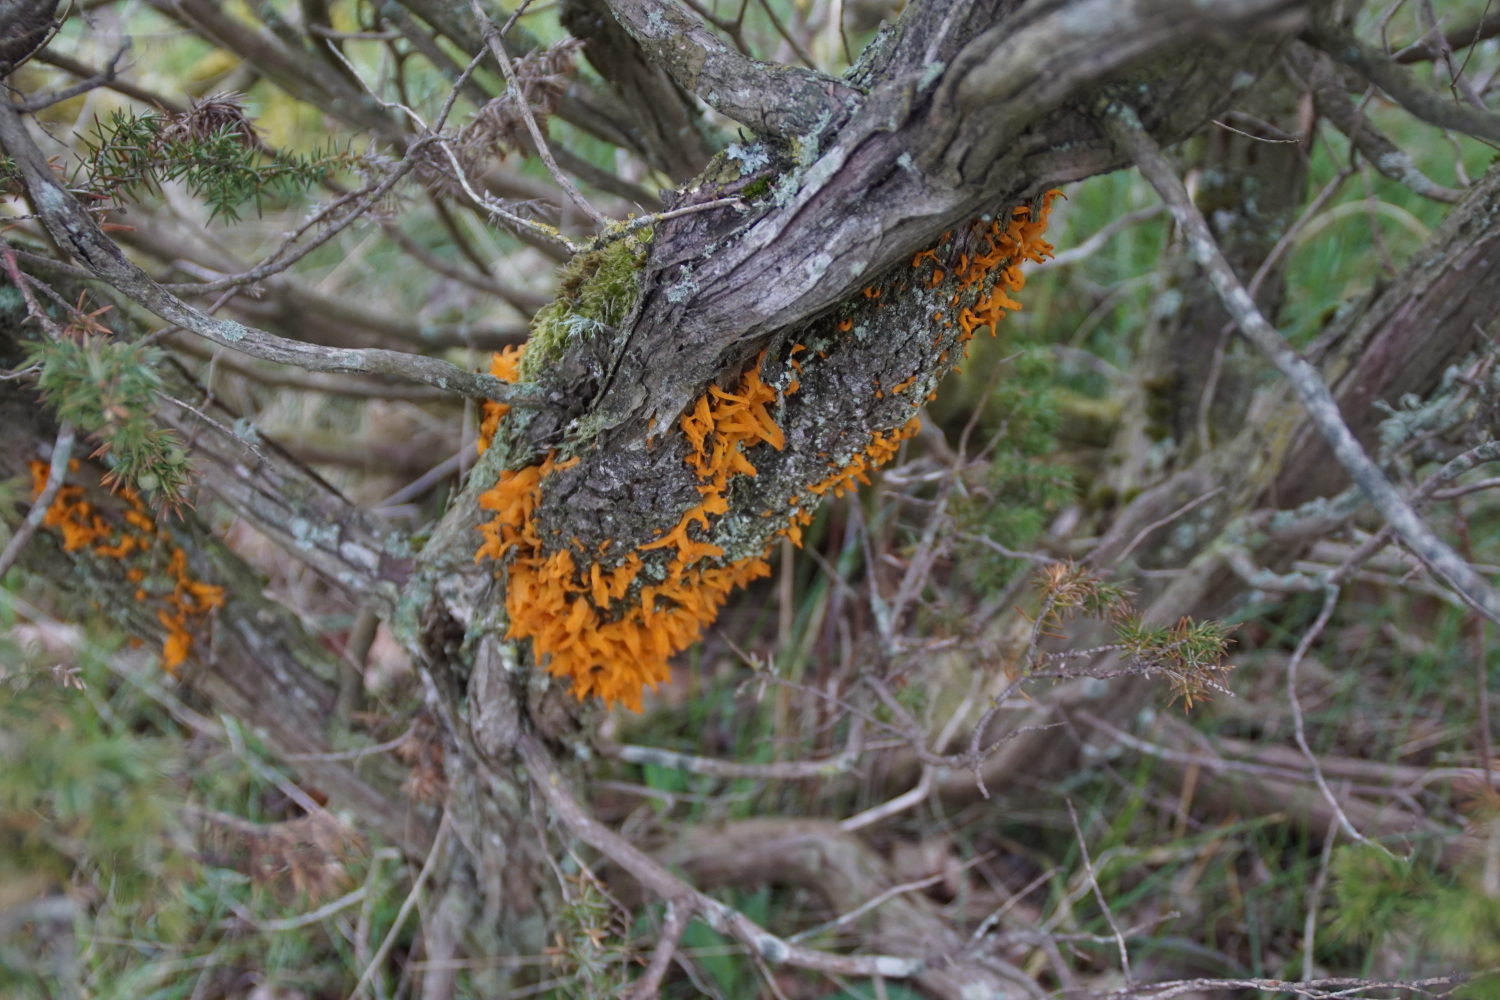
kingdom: Fungi
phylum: Basidiomycota
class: Pucciniomycetes
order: Pucciniales
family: Gymnosporangiaceae
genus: Gymnosporangium
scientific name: Gymnosporangium clavariiforme
